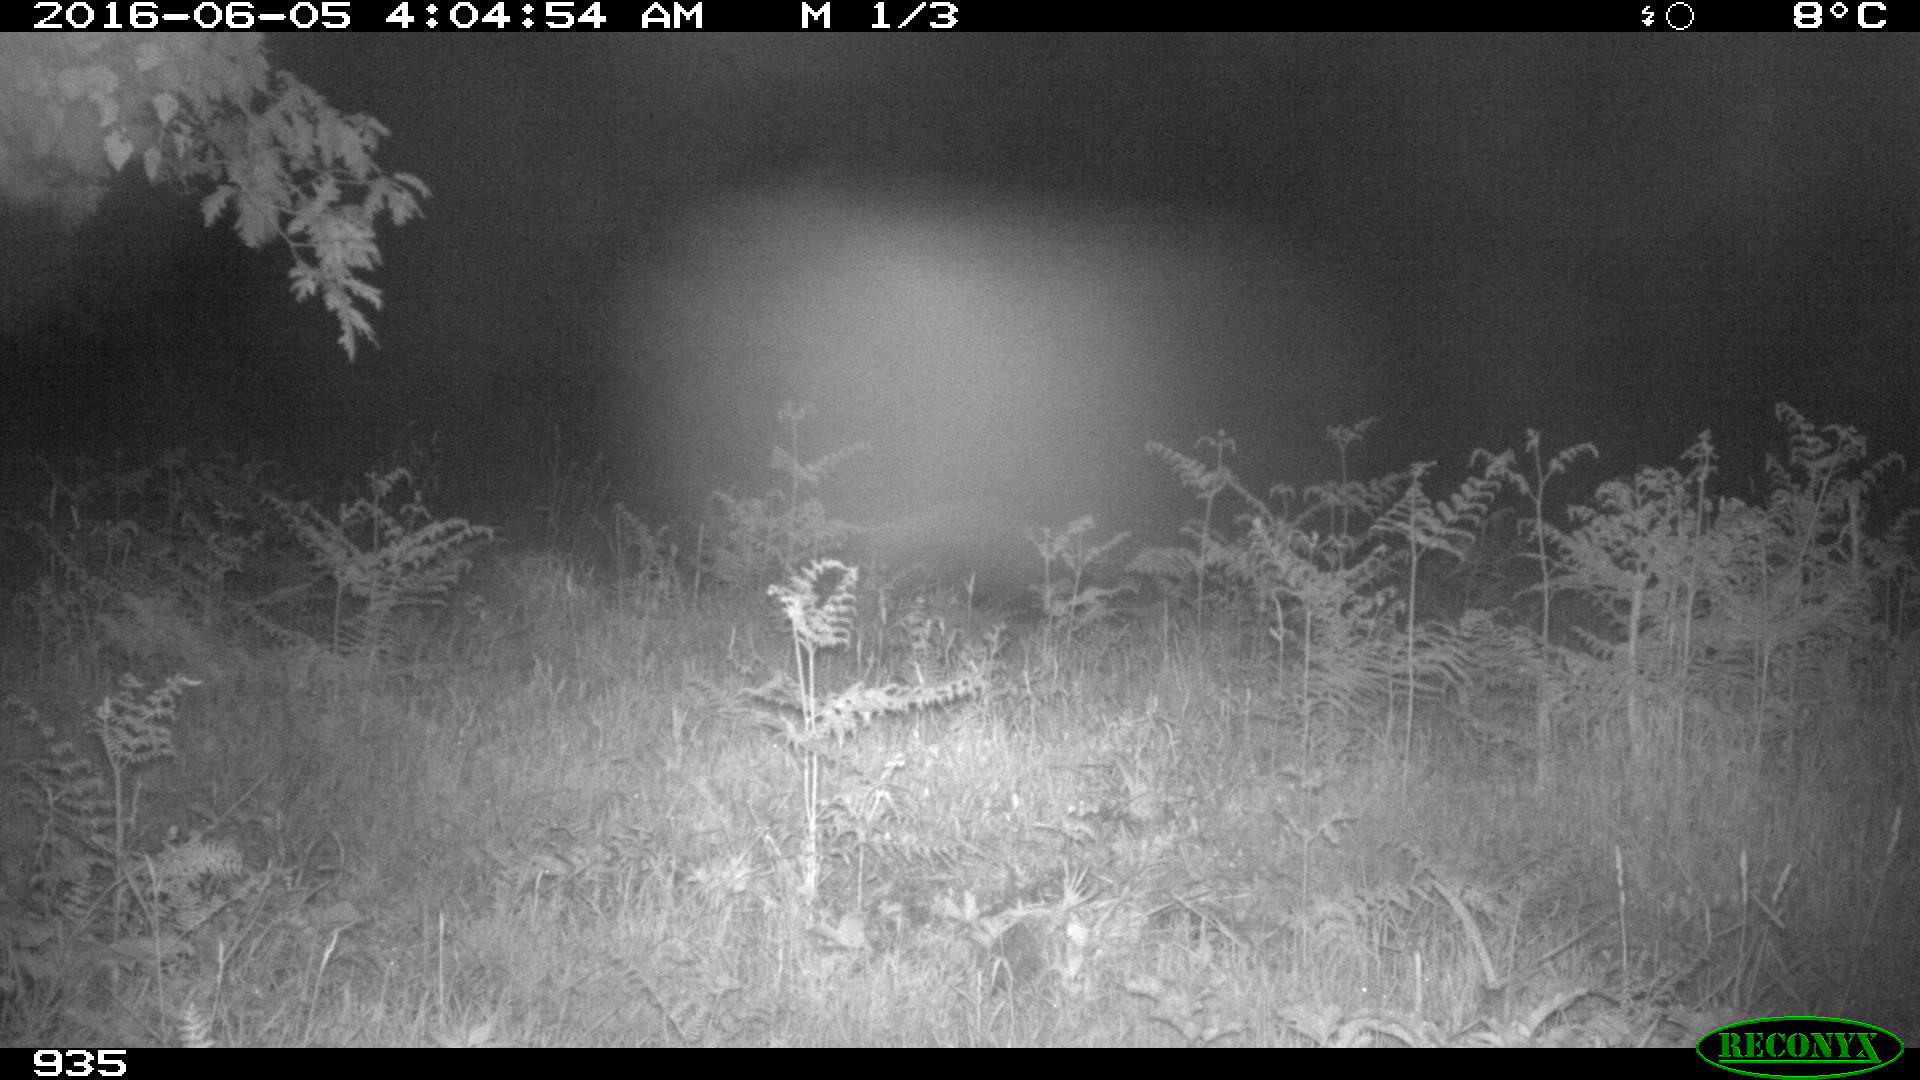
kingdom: Animalia
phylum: Chordata
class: Mammalia
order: Artiodactyla
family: Suidae
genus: Sus
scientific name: Sus scrofa
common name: Wild boar
